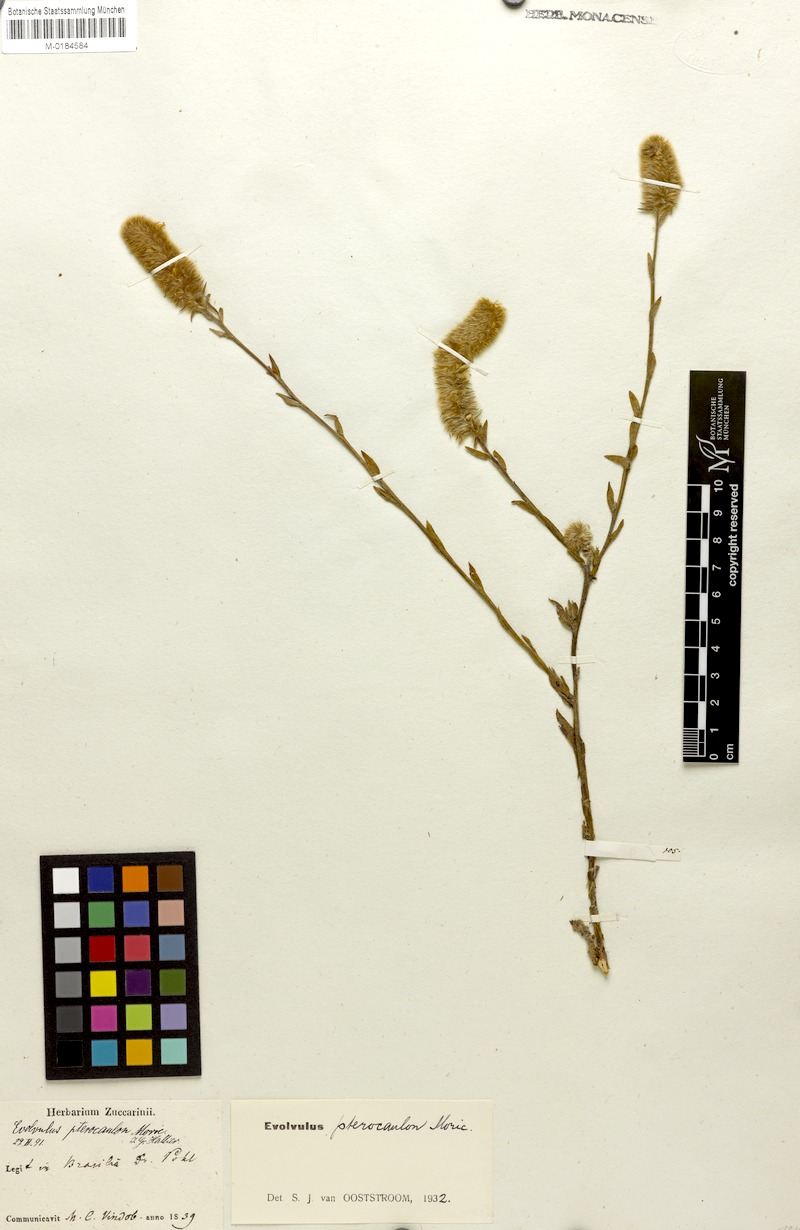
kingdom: Plantae
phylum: Tracheophyta
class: Magnoliopsida
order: Solanales
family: Convolvulaceae
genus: Evolvulus
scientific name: Evolvulus pterocaulon
